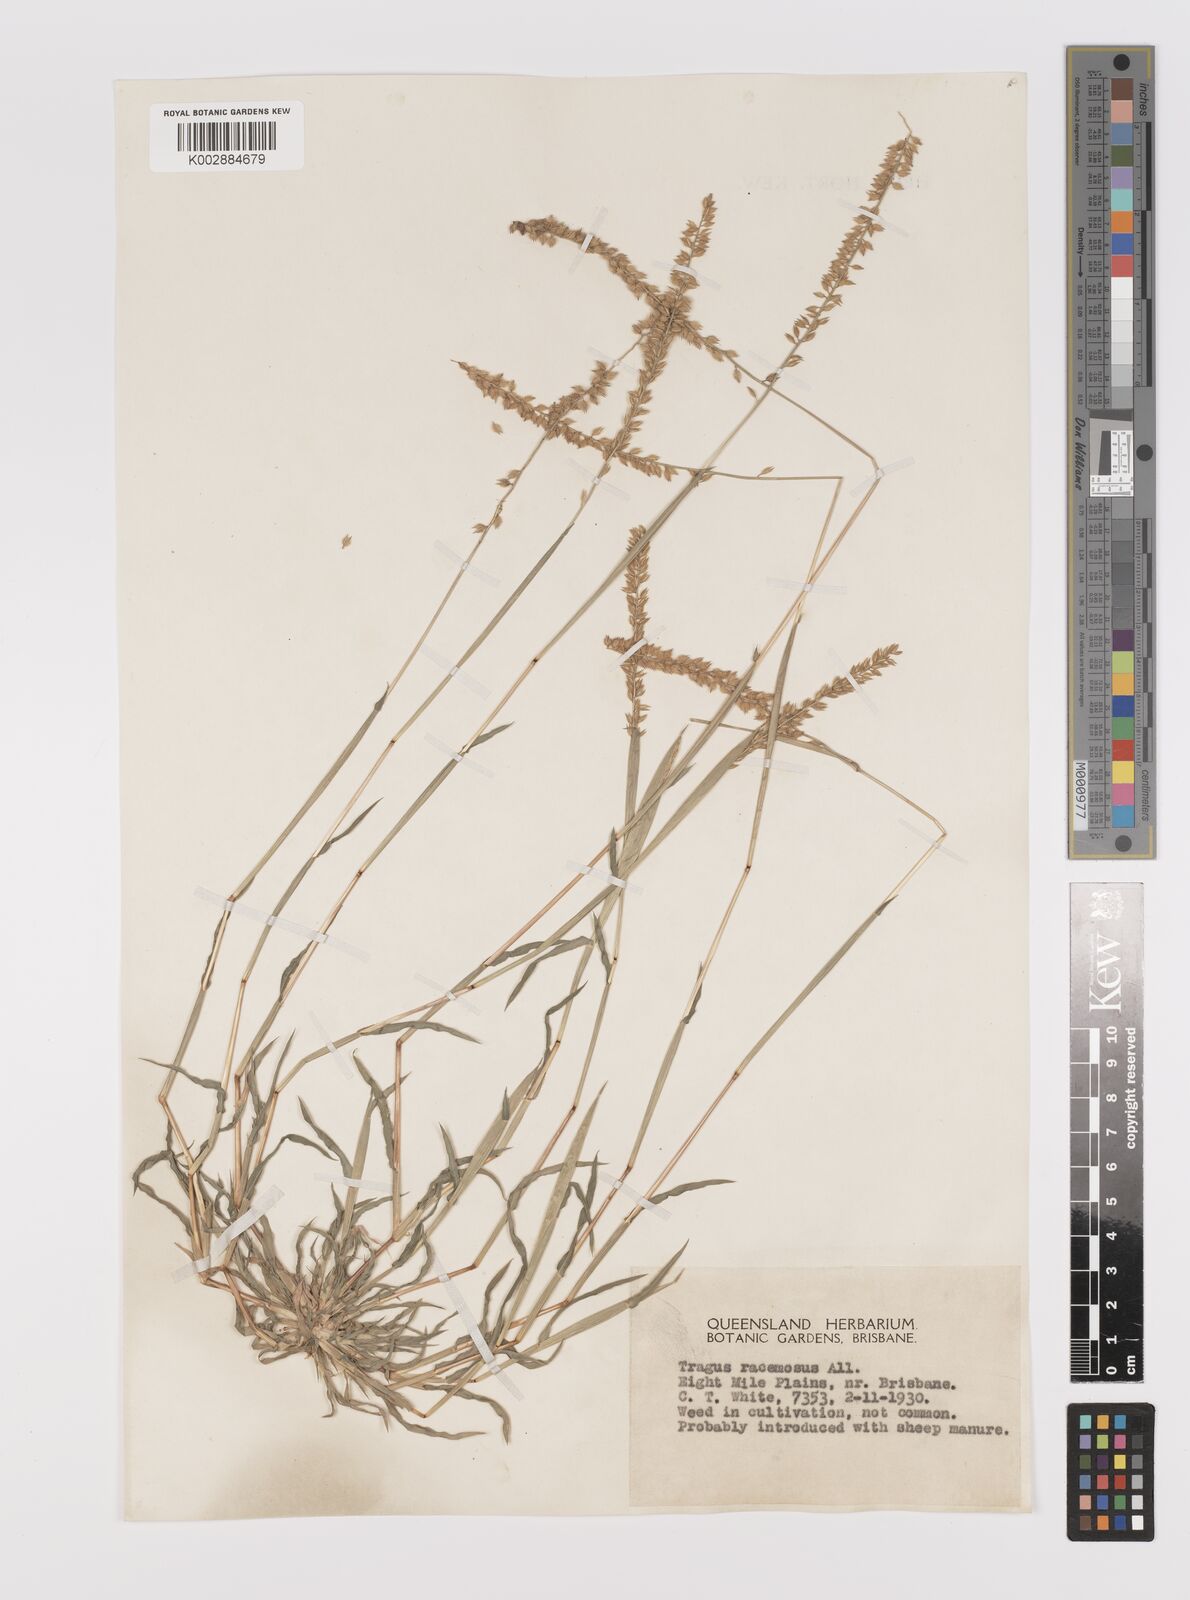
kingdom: Plantae
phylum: Tracheophyta
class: Liliopsida
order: Poales
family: Poaceae
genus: Tragus
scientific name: Tragus australianus
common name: Australian bur-grass
